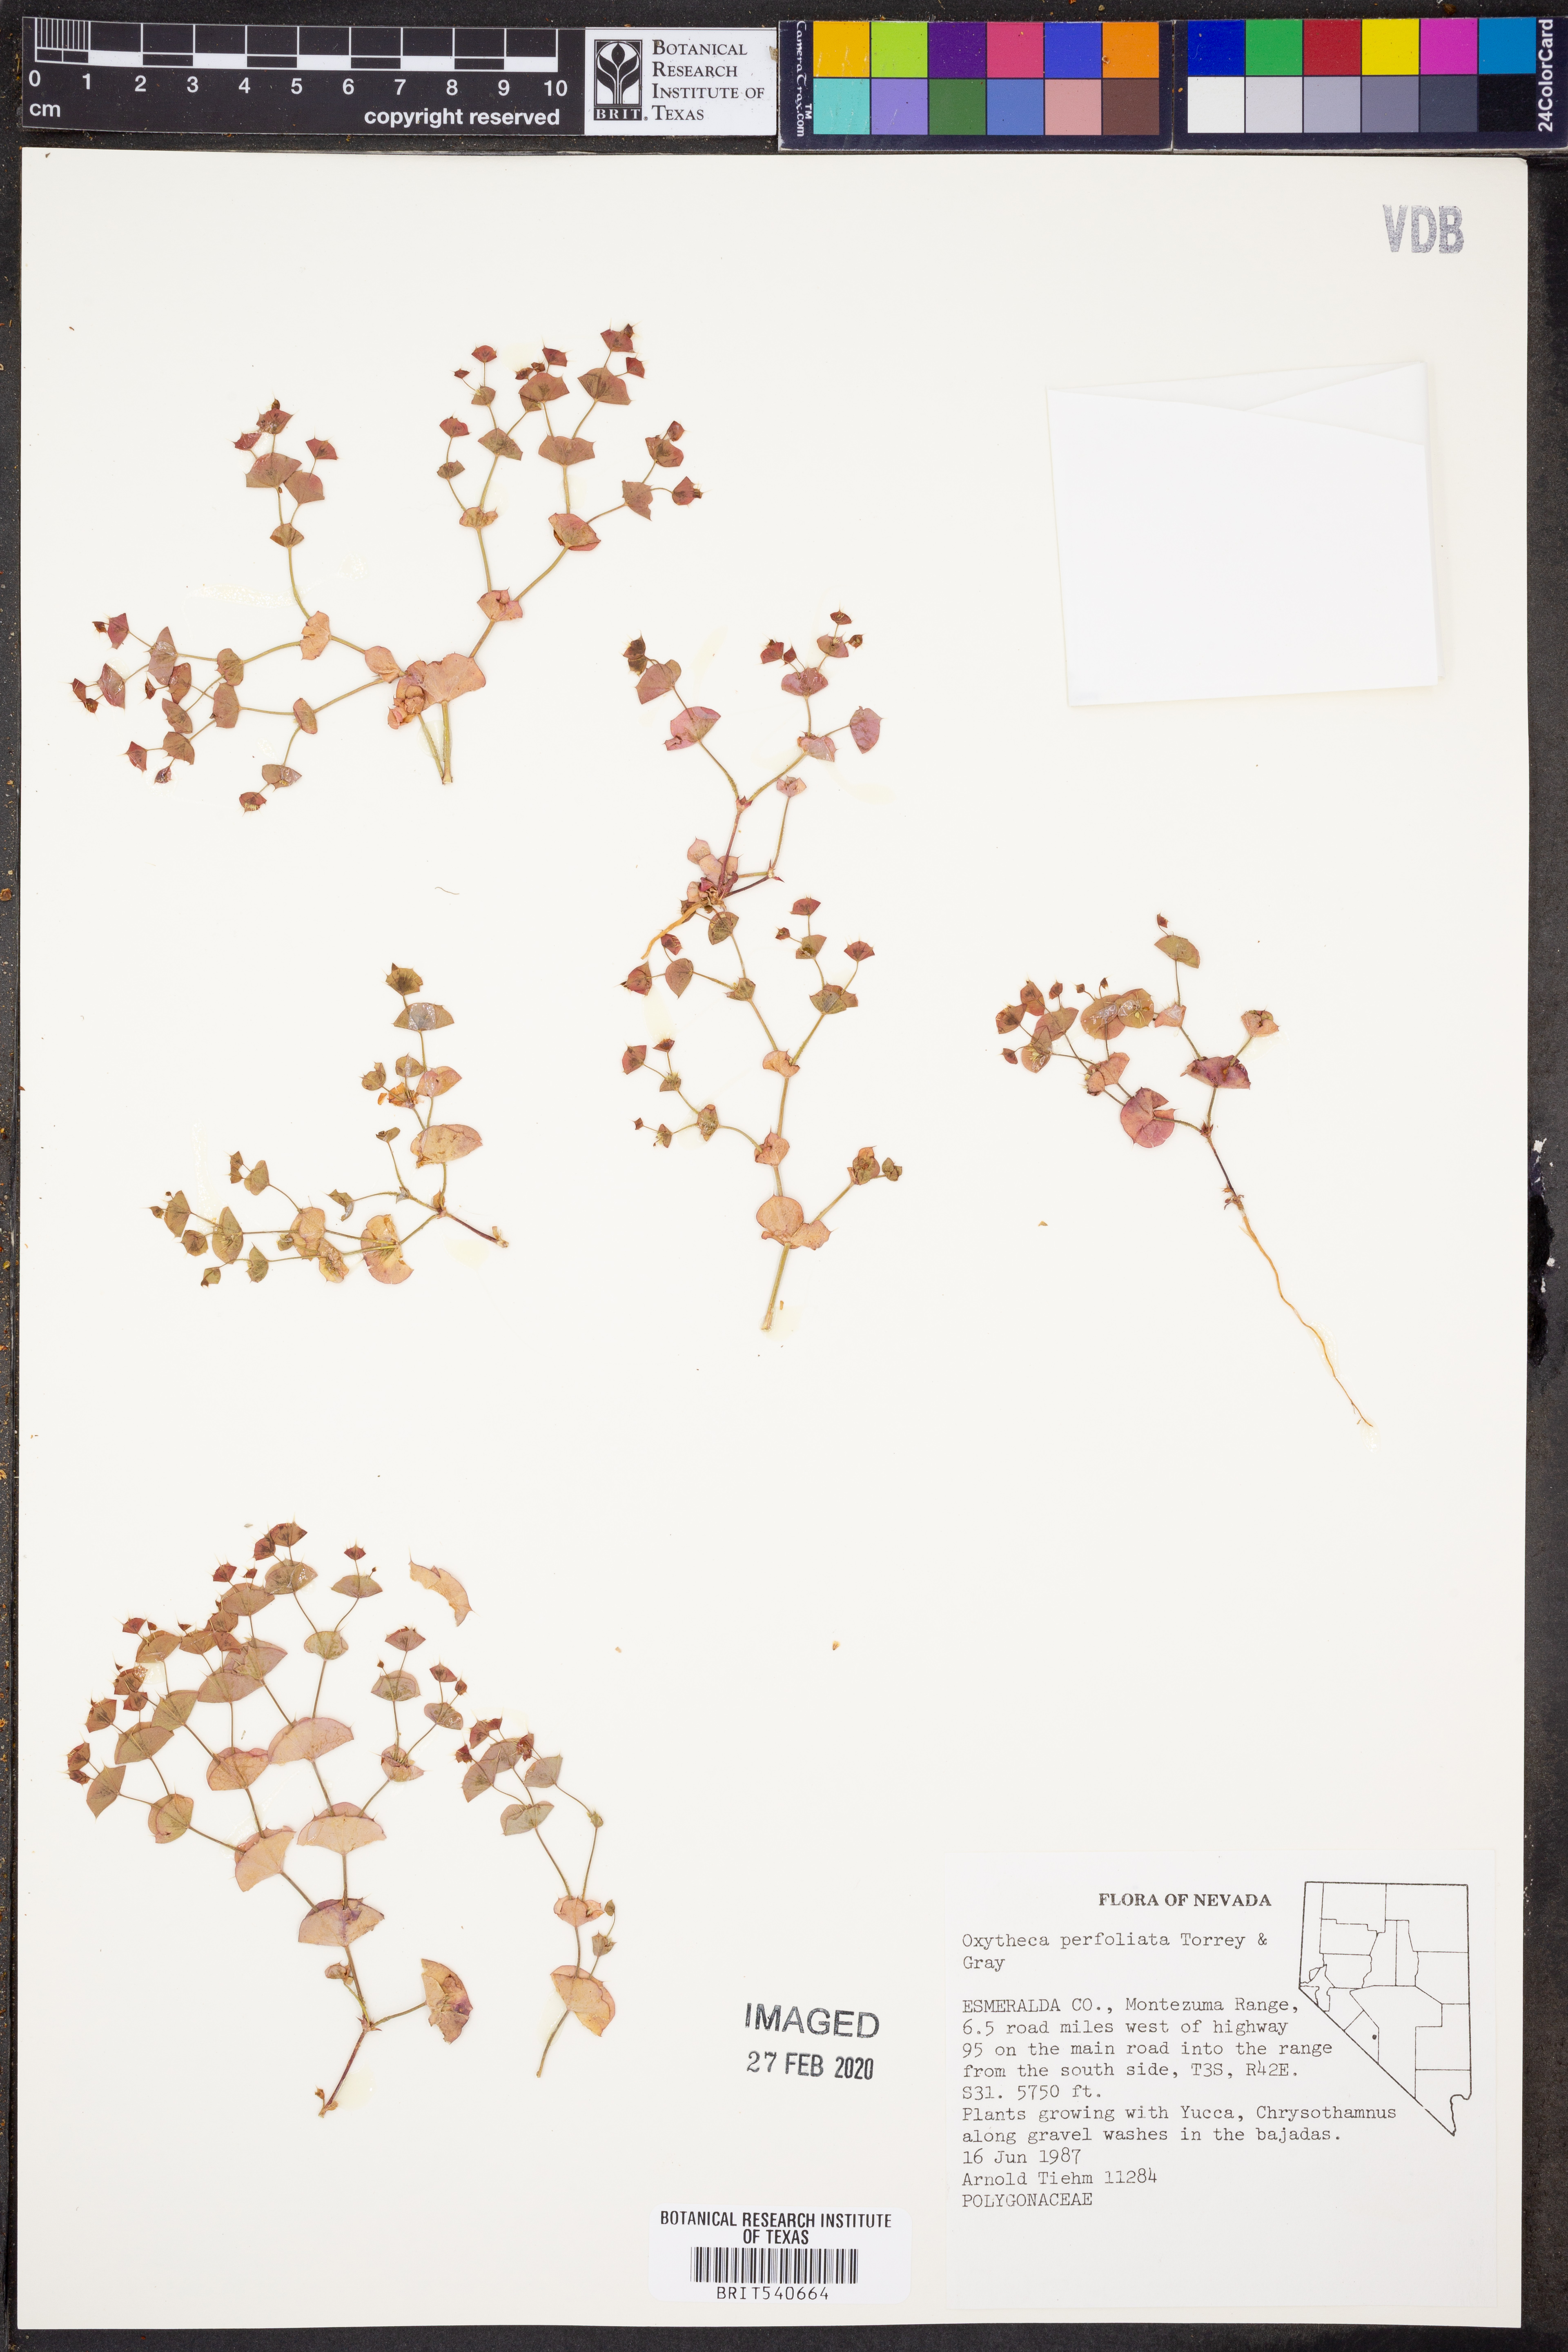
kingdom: Plantae
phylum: Tracheophyta
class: Magnoliopsida
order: Caryophyllales
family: Polygonaceae
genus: Oxytheca
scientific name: Oxytheca perfoliata
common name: Round-leaf puncturebract
